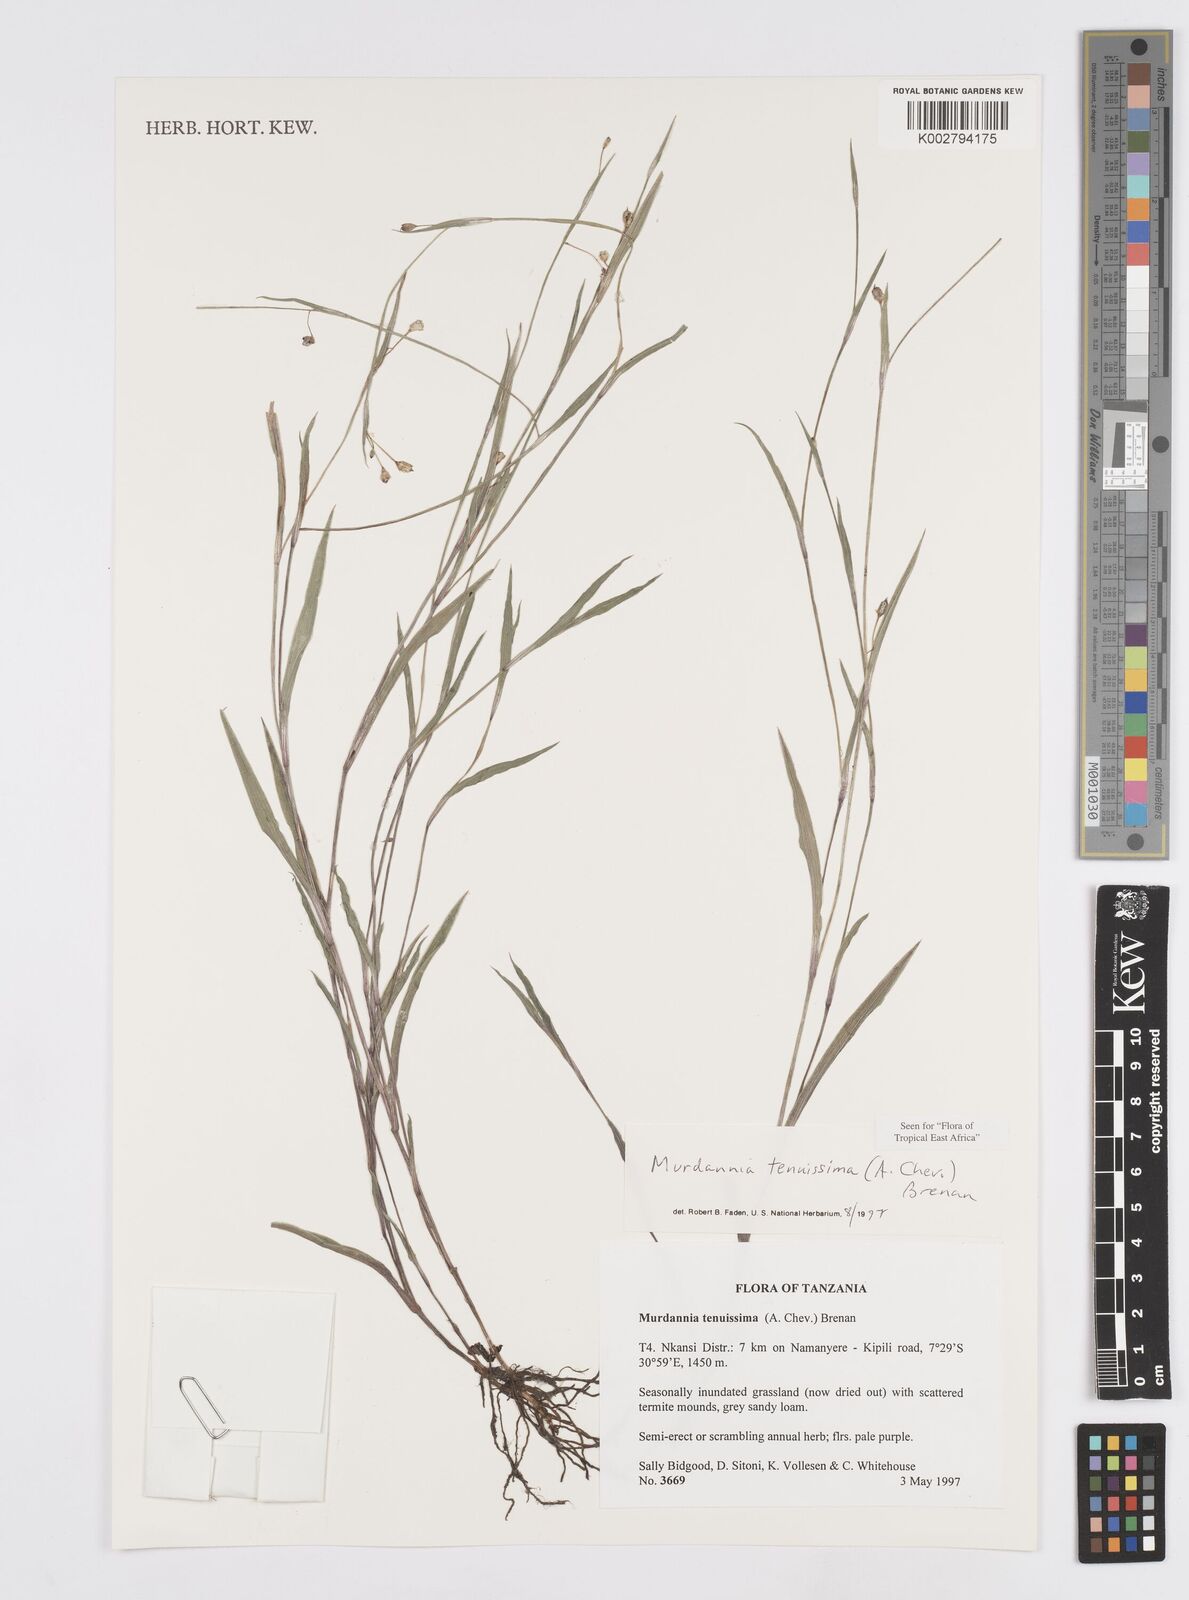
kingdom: Plantae
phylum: Tracheophyta
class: Liliopsida
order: Commelinales
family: Commelinaceae
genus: Murdannia
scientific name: Murdannia tenuissima
